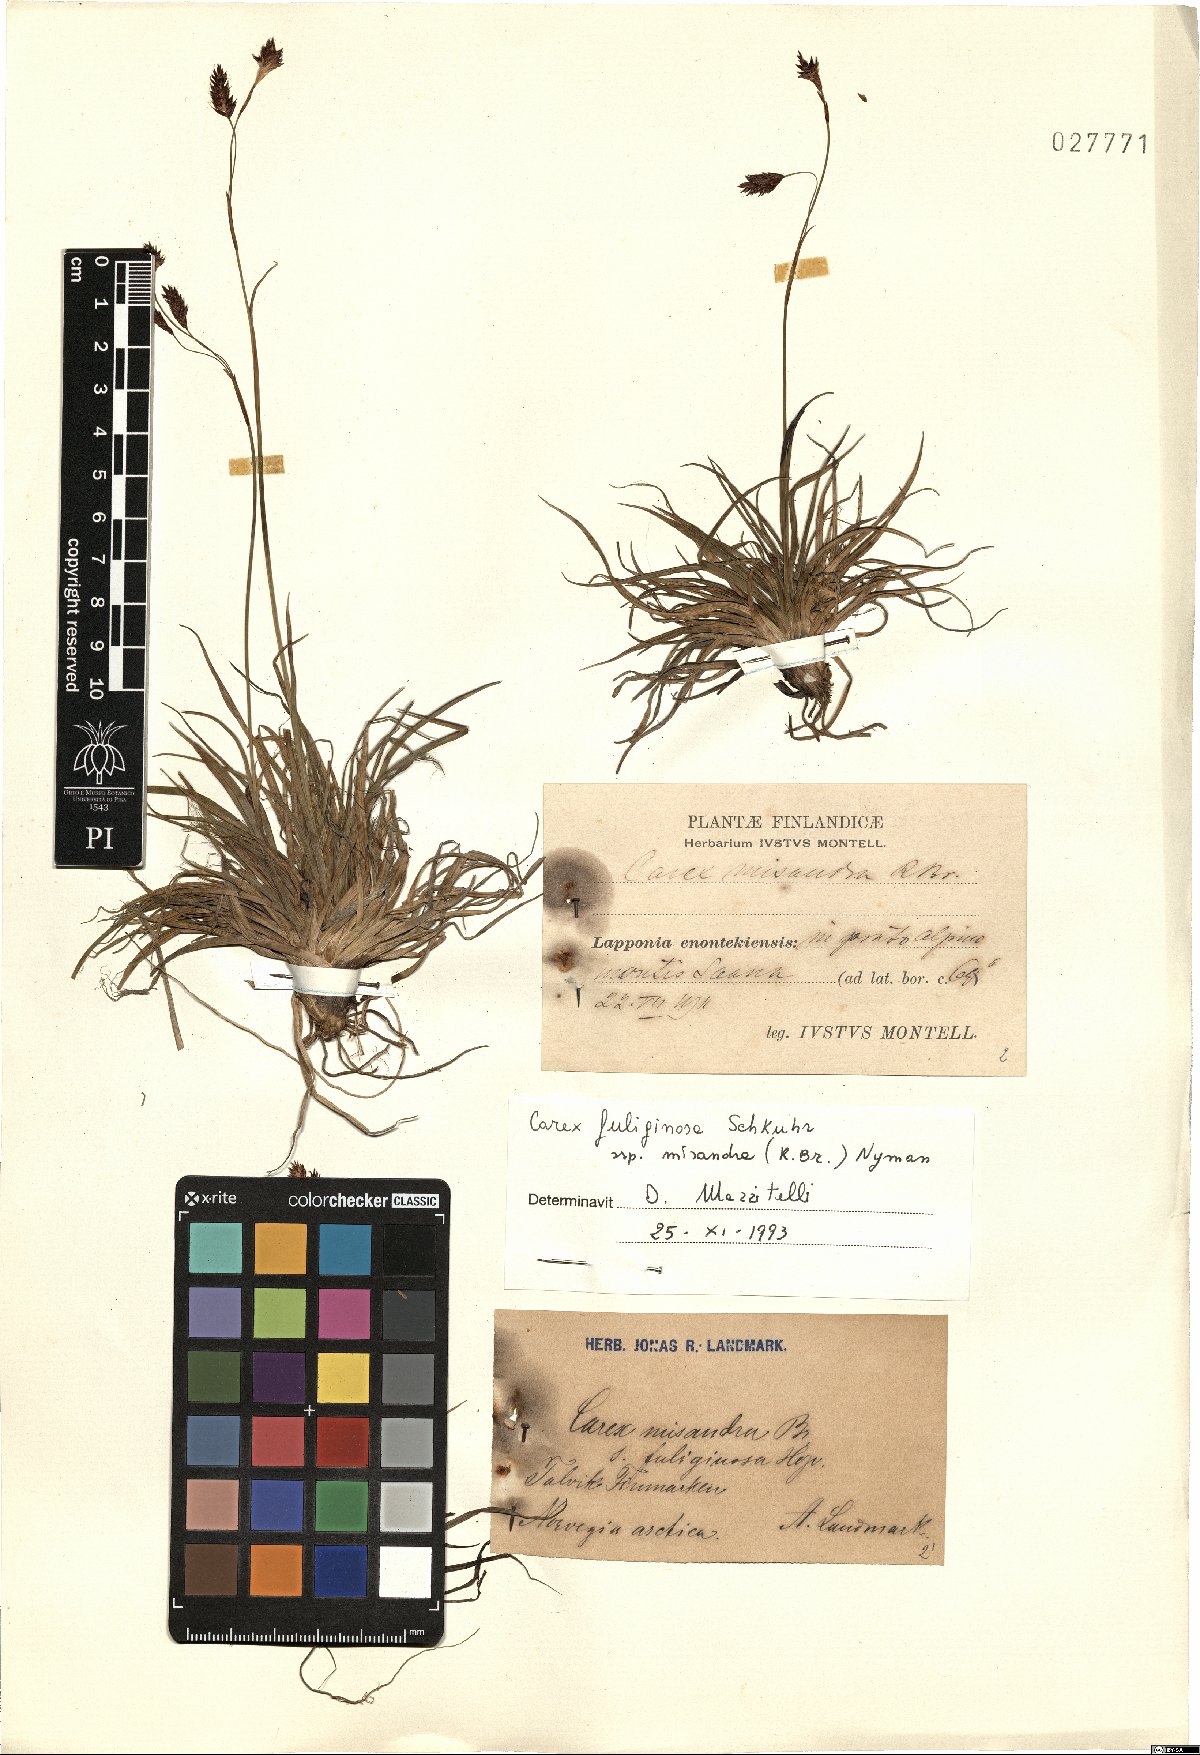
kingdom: Plantae
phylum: Tracheophyta
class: Liliopsida
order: Poales
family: Cyperaceae
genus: Carex
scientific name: Carex fuliginosa
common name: Few-flowered sedge
